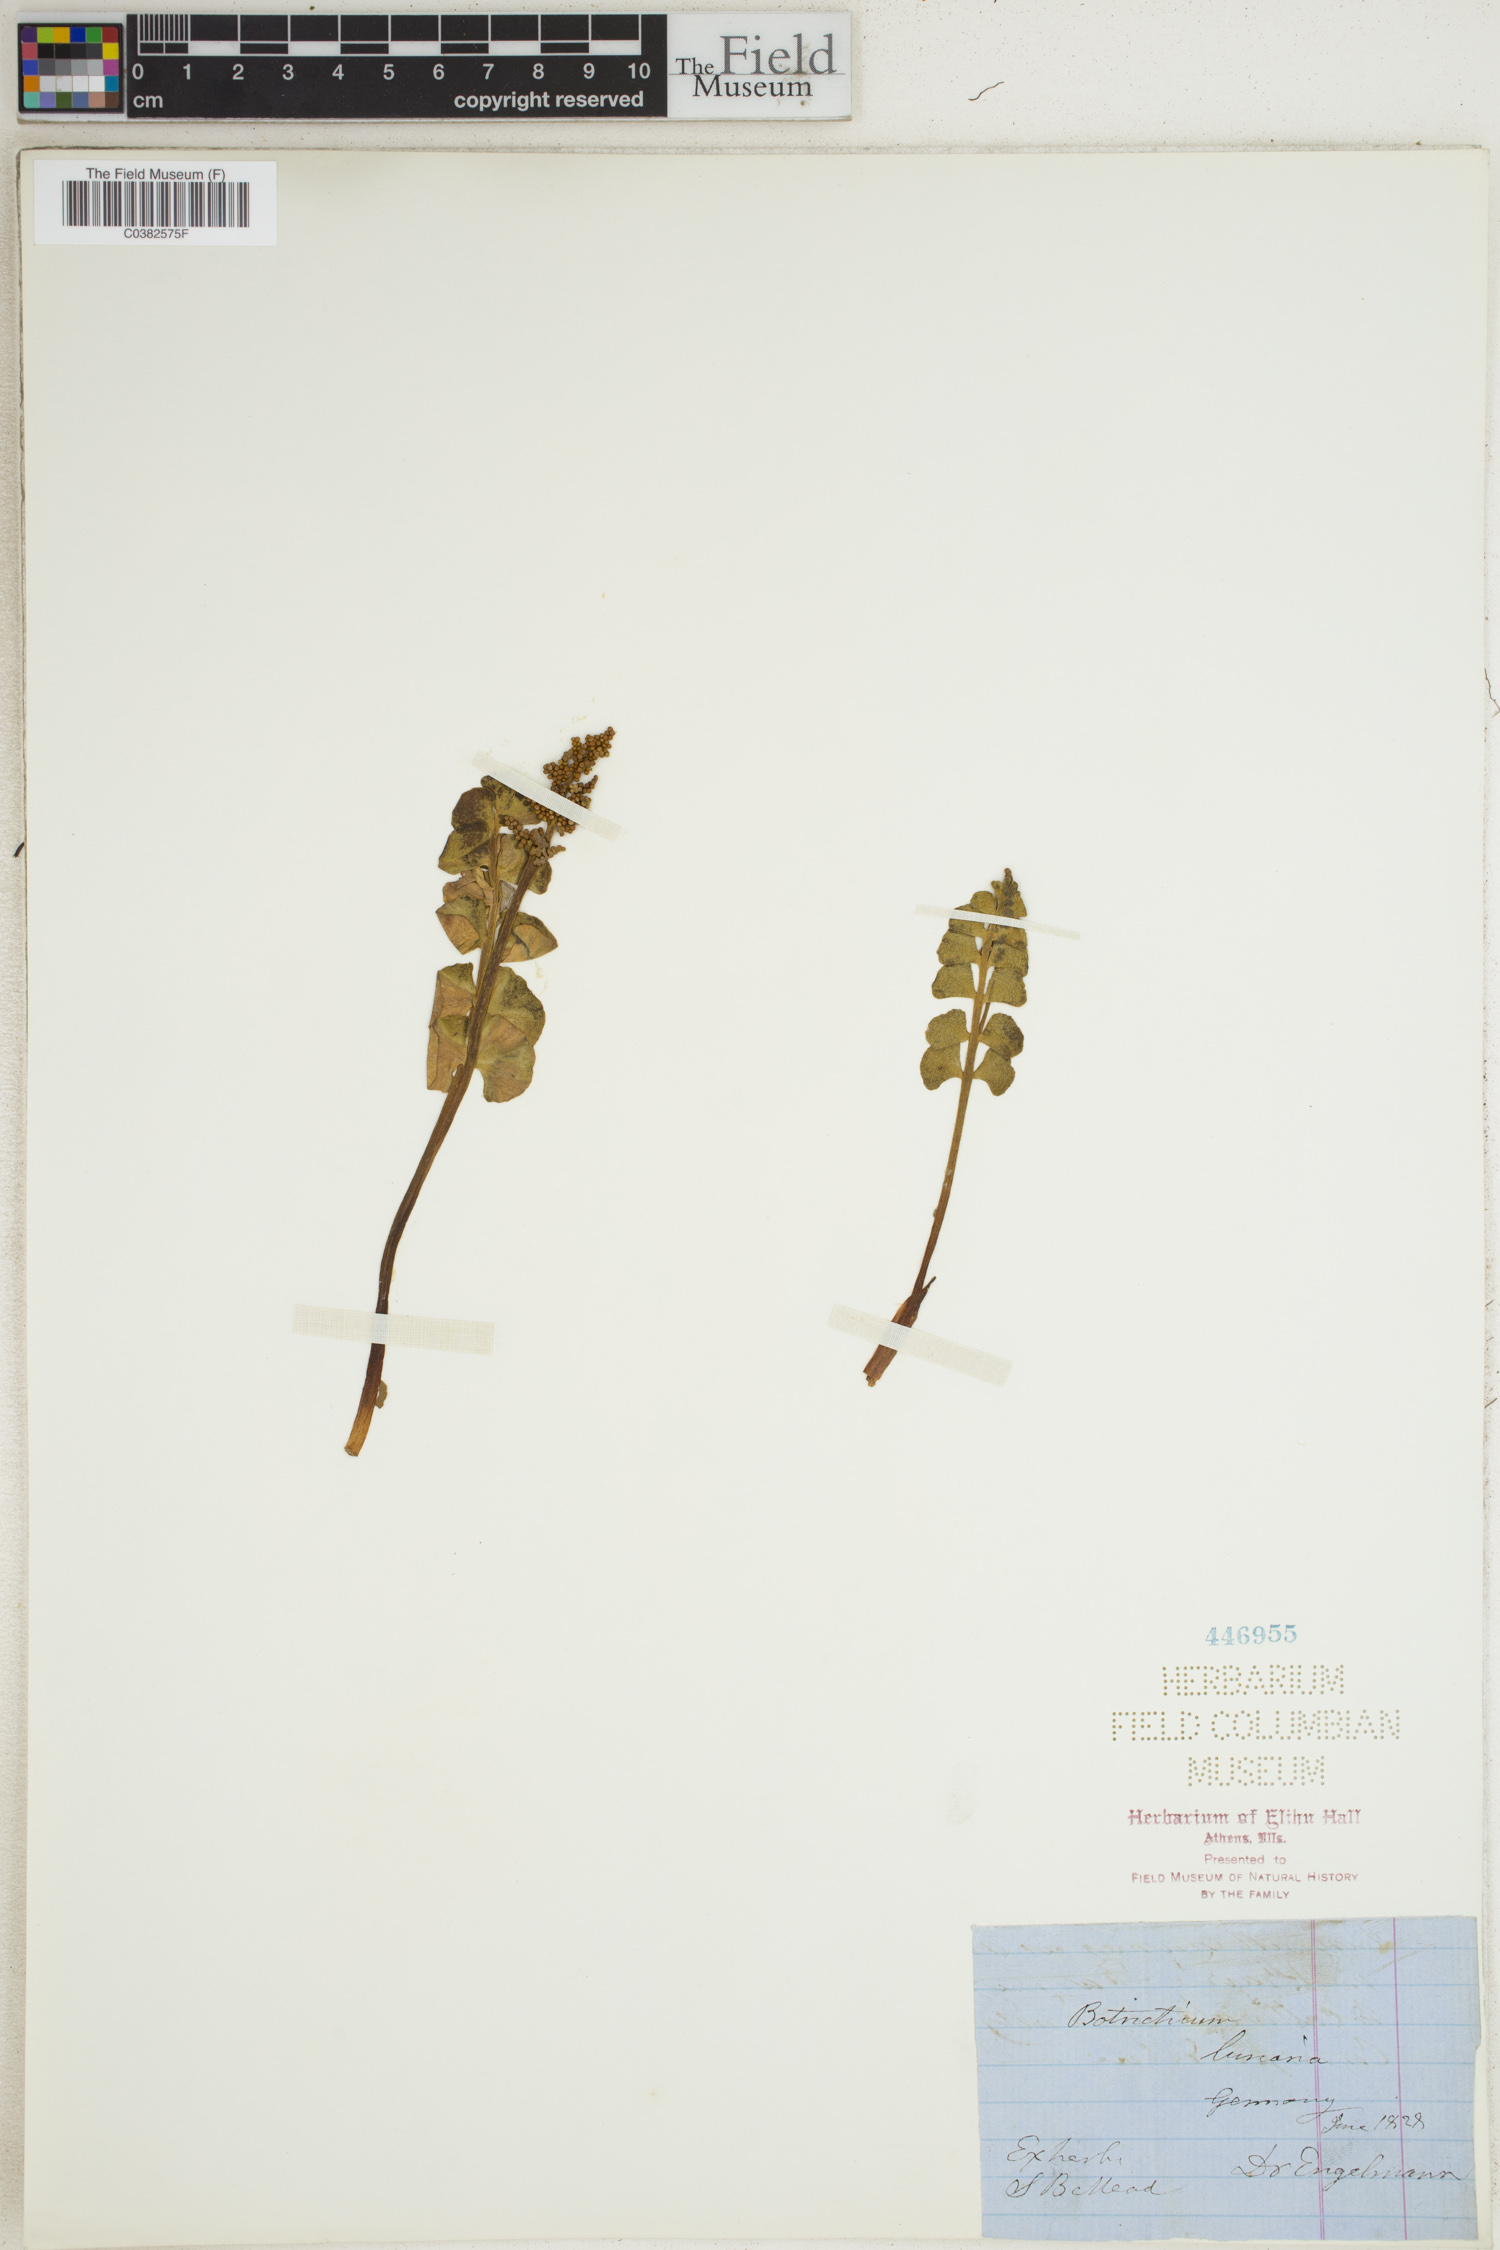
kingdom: Plantae
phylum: Tracheophyta
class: Polypodiopsida
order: Ophioglossales
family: Ophioglossaceae
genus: Botrychium
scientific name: Botrychium lunaria
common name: Moonwort
